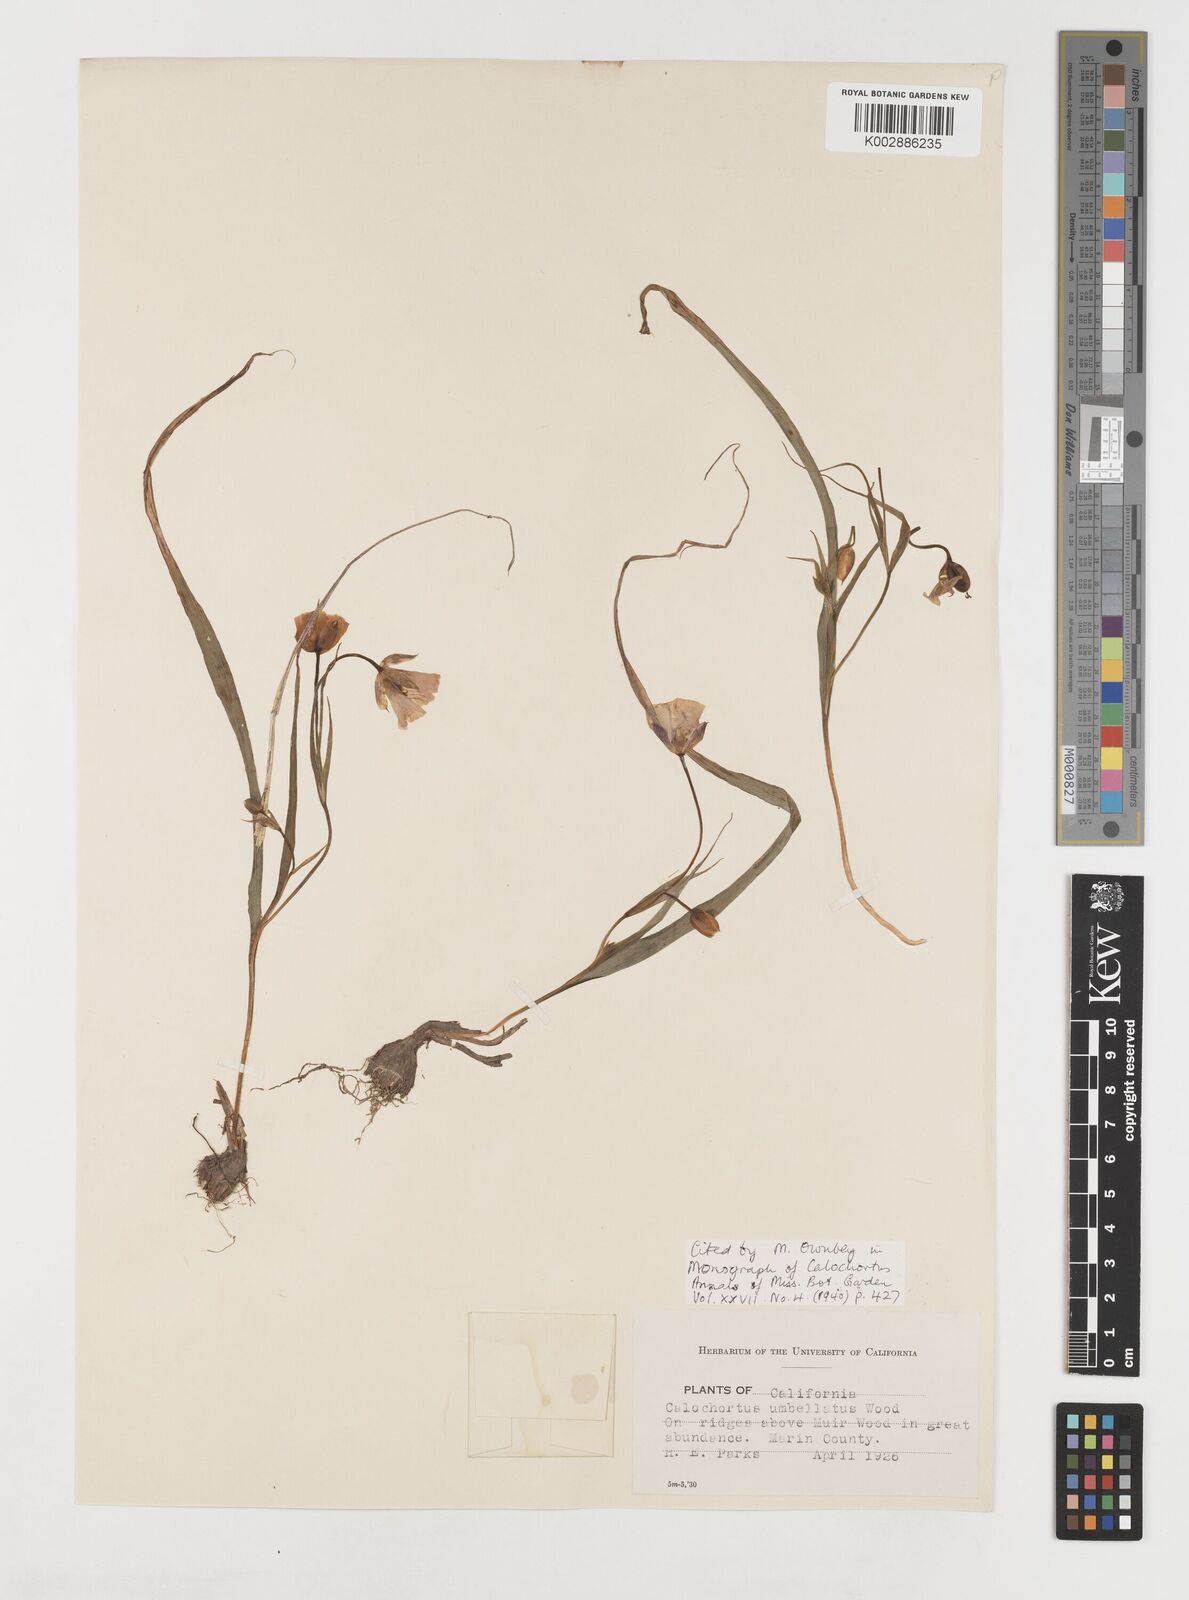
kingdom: Plantae
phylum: Tracheophyta
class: Liliopsida
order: Liliales
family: Liliaceae
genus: Calochortus
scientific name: Calochortus umbellatus
